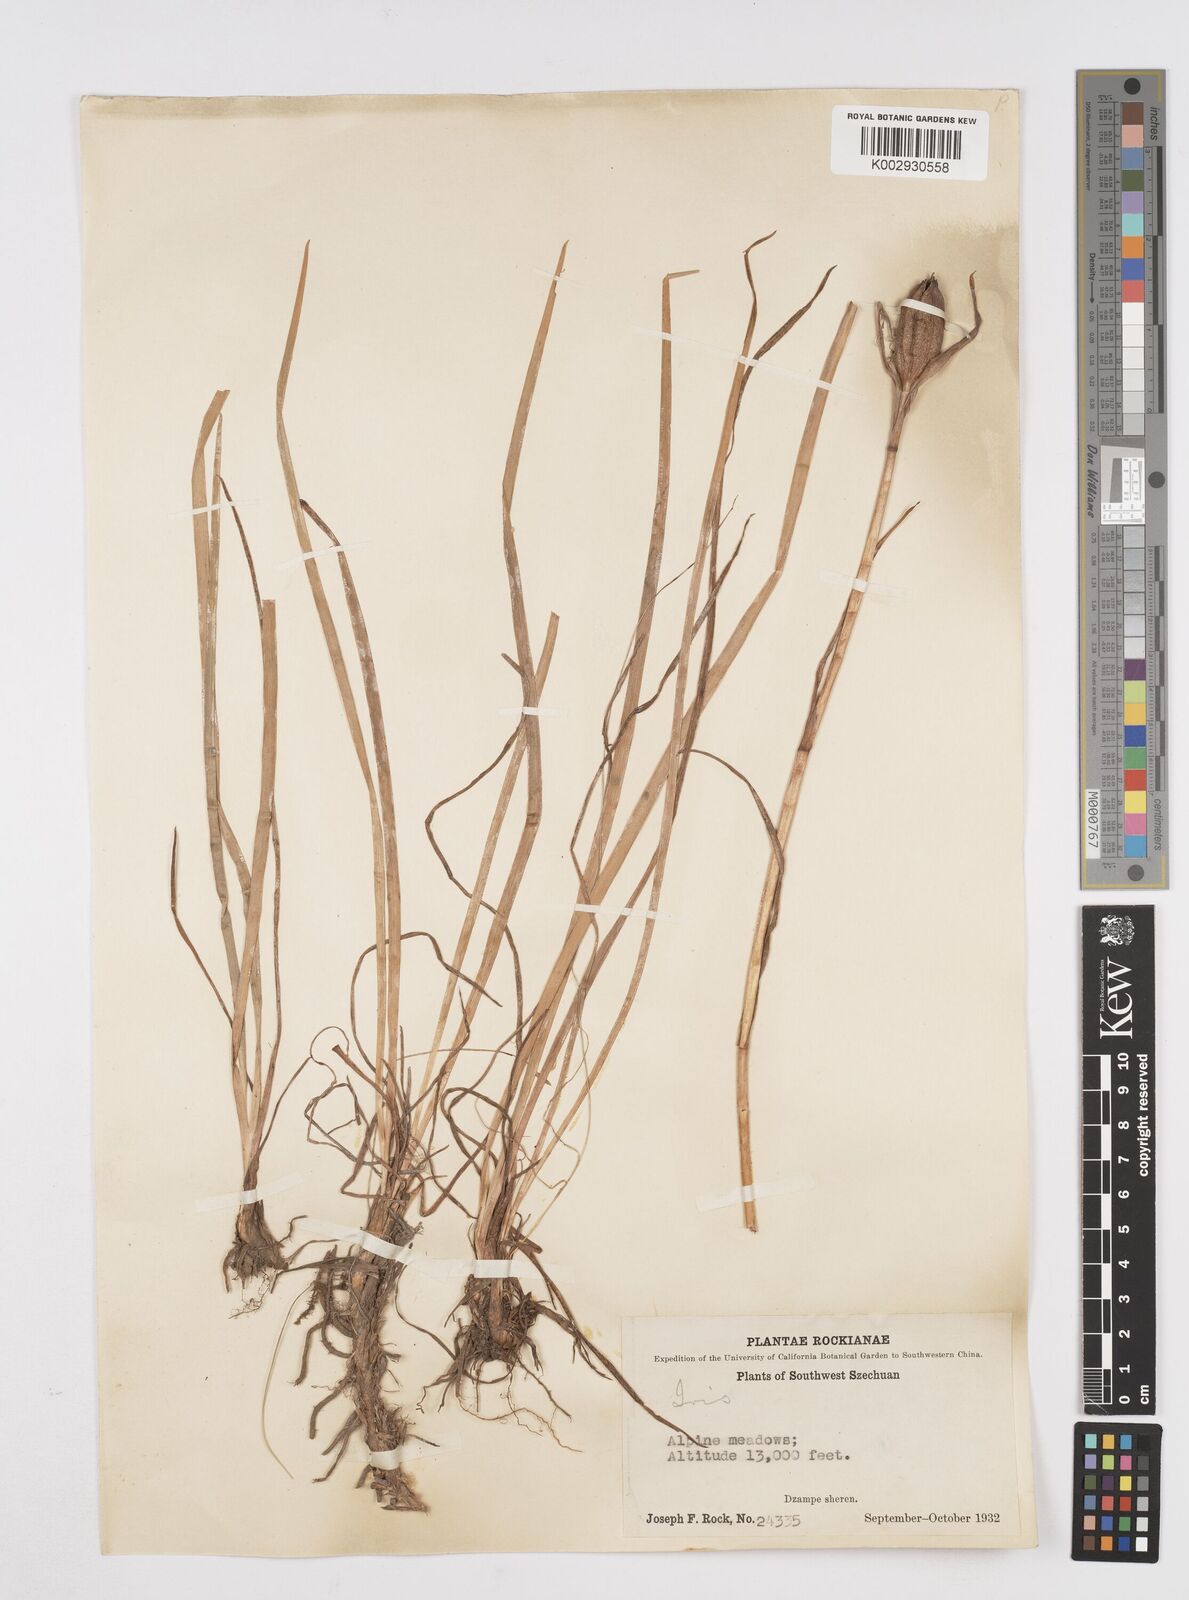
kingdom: Plantae
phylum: Tracheophyta
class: Liliopsida
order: Asparagales
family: Iridaceae
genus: Iris
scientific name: Iris bulleyana
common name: Southwest iris
